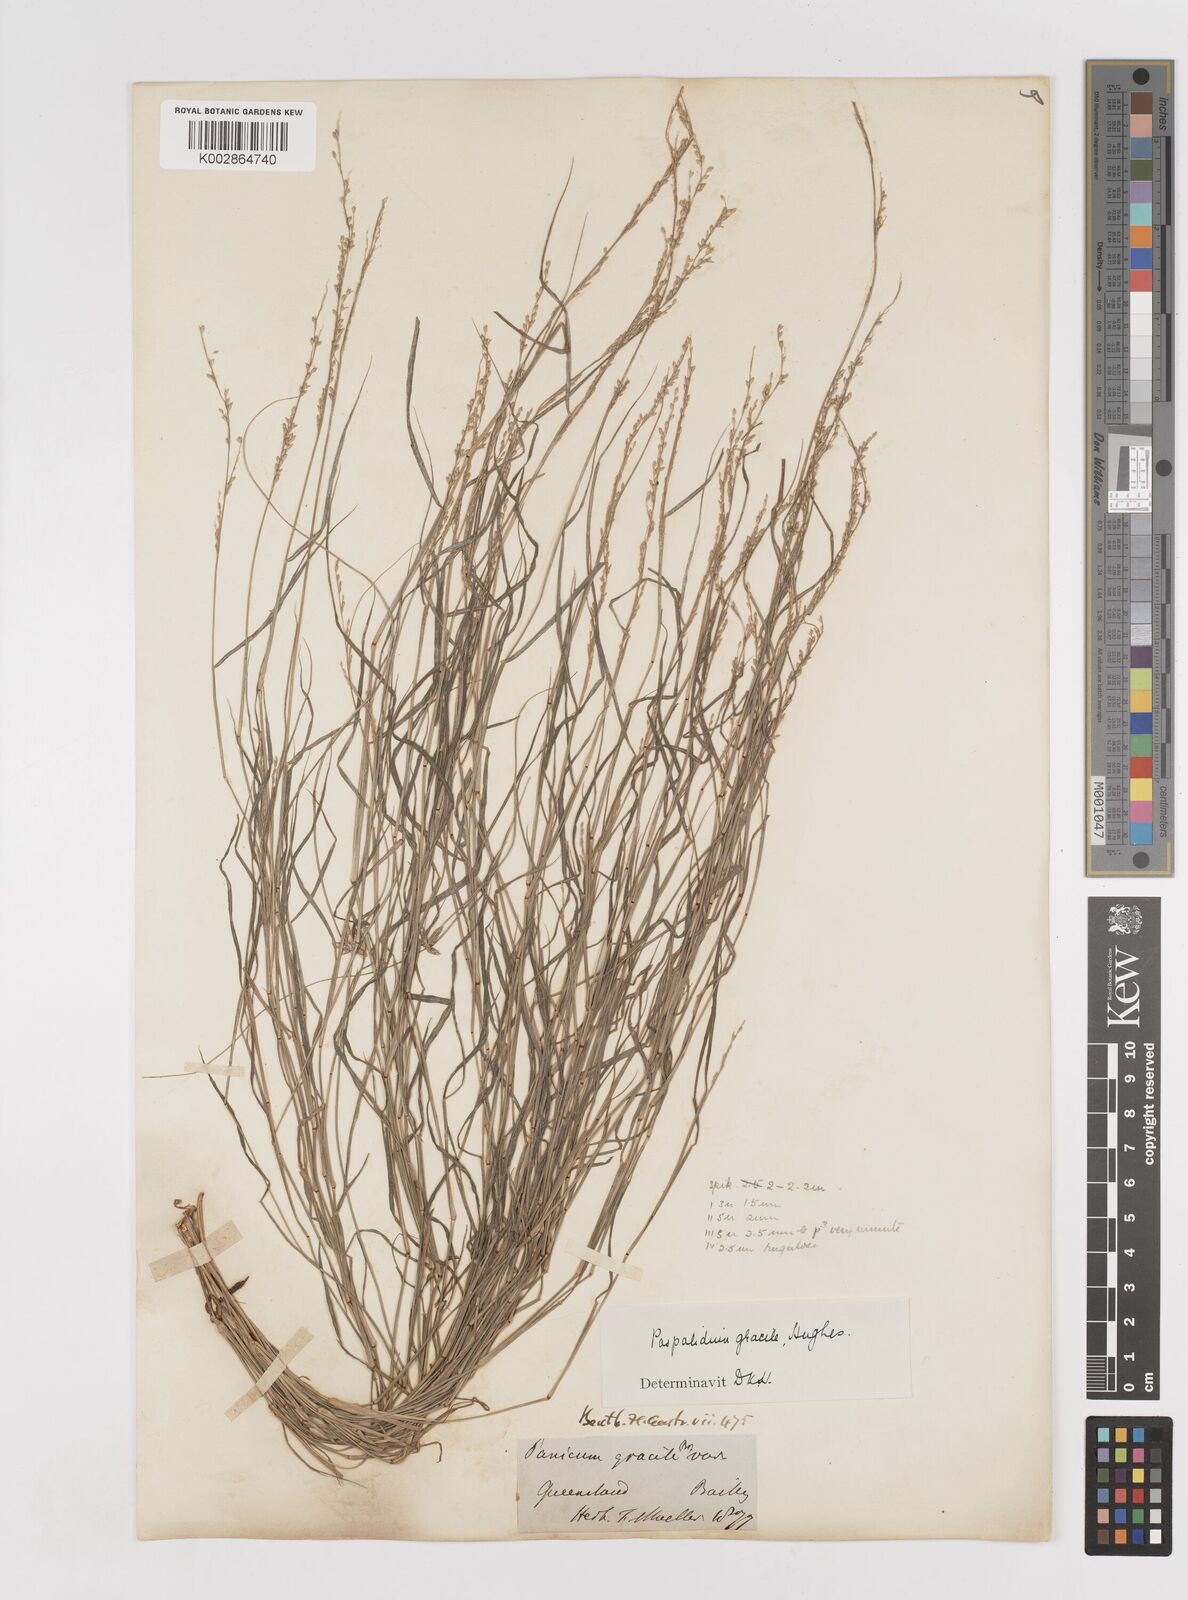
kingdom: Plantae
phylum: Tracheophyta
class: Liliopsida
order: Poales
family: Poaceae
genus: Setaria
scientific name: Setaria brownii
